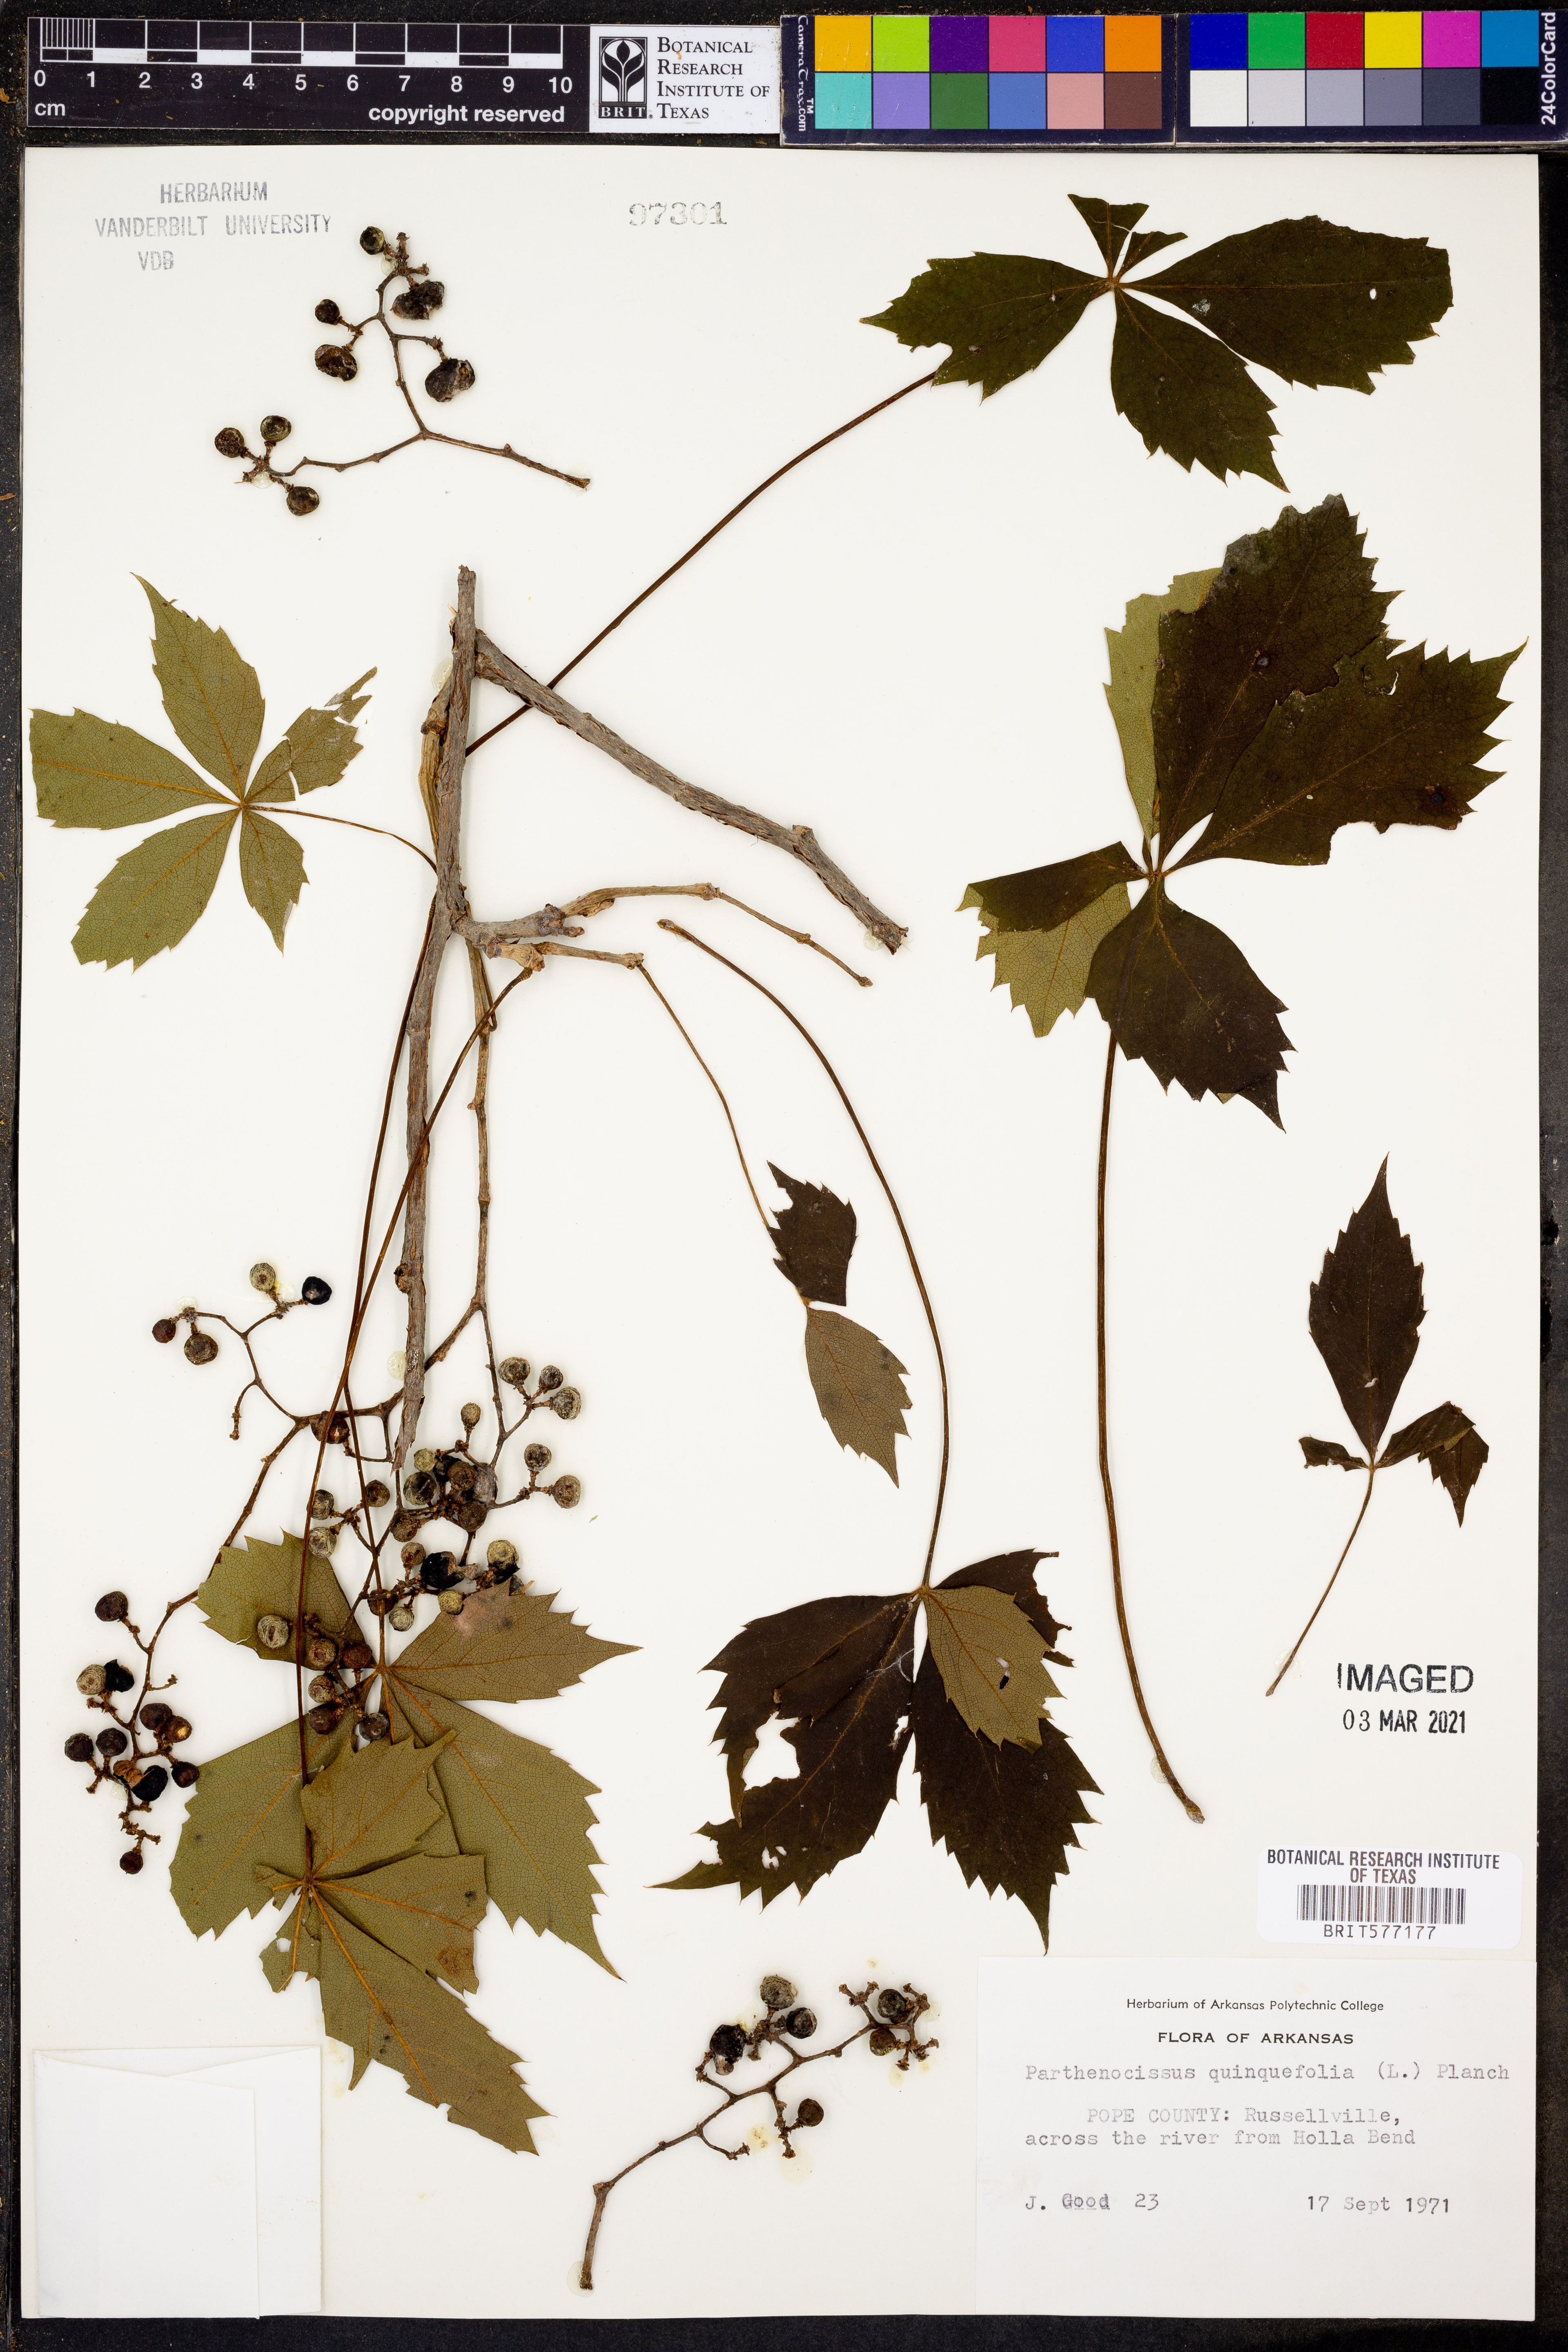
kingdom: Plantae
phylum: Tracheophyta
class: Magnoliopsida
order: Vitales
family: Vitaceae
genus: Parthenocissus
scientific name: Parthenocissus quinquefolia
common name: Virginia-creeper
